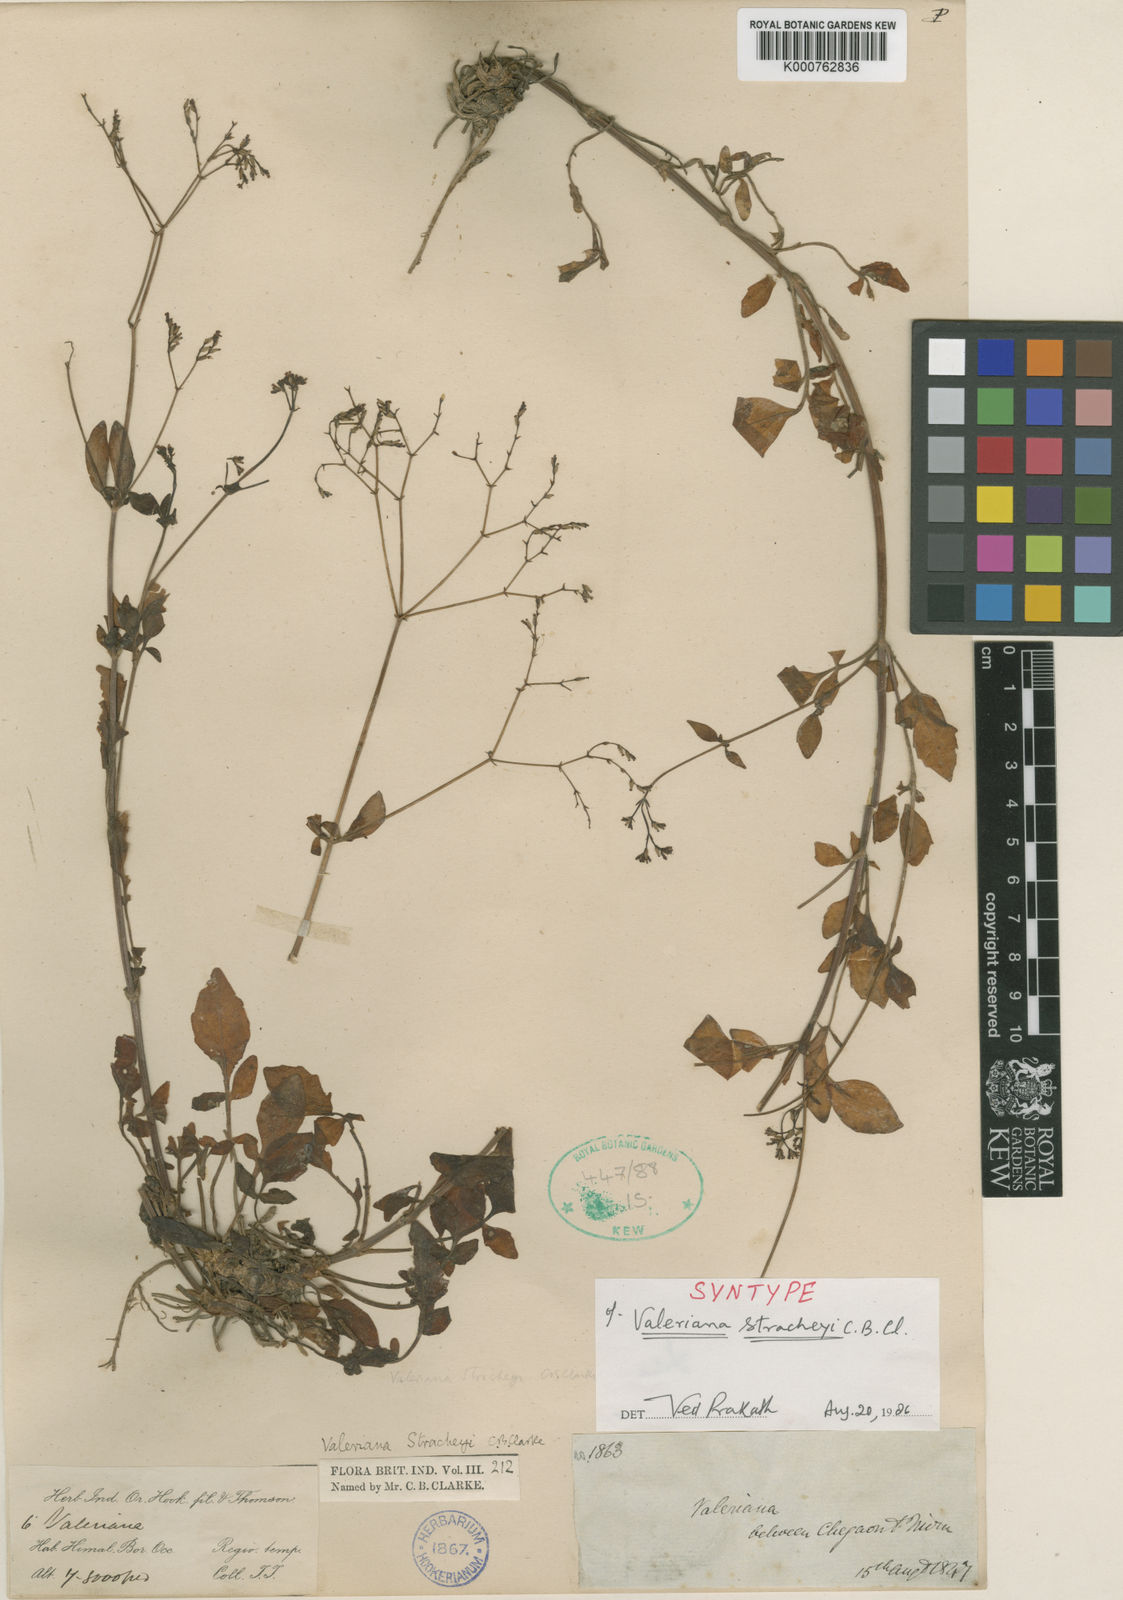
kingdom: Plantae
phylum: Tracheophyta
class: Magnoliopsida
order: Dipsacales
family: Caprifoliaceae
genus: Valeriana
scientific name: Valeriana stracheyi
